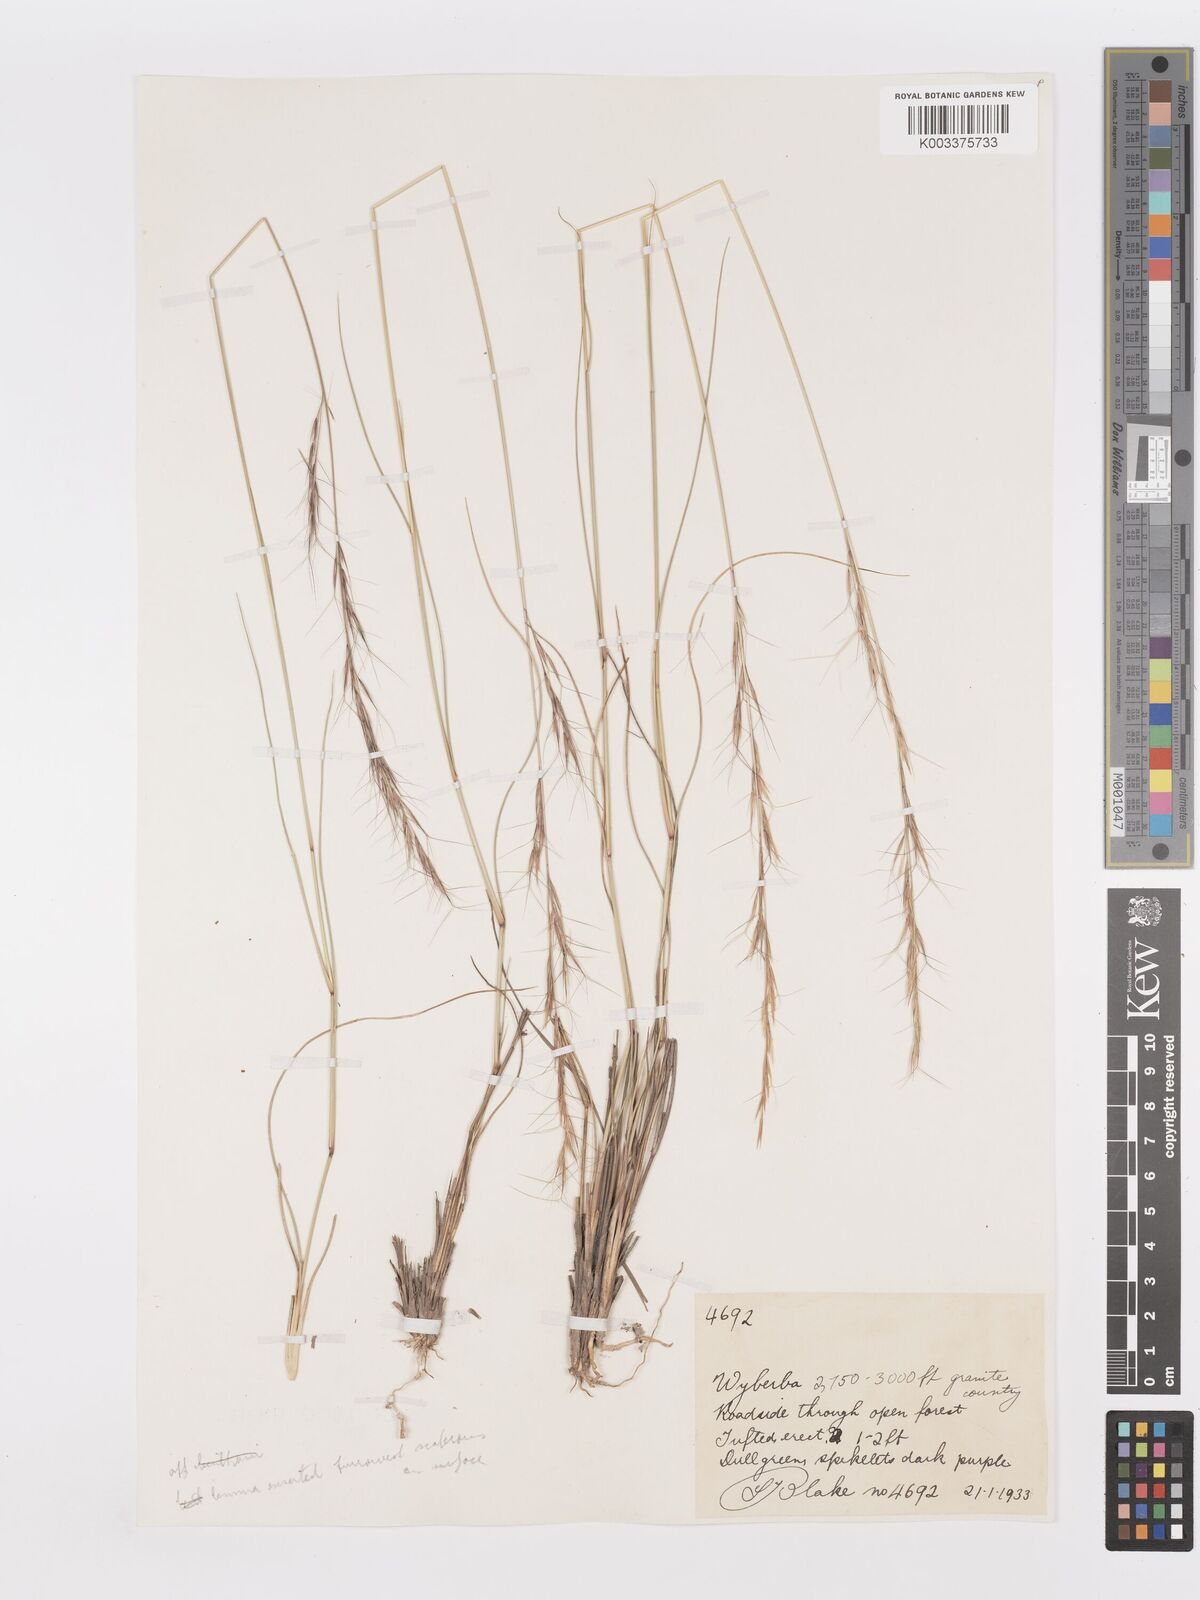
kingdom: Plantae
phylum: Tracheophyta
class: Liliopsida
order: Poales
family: Poaceae
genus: Aristida
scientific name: Aristida
